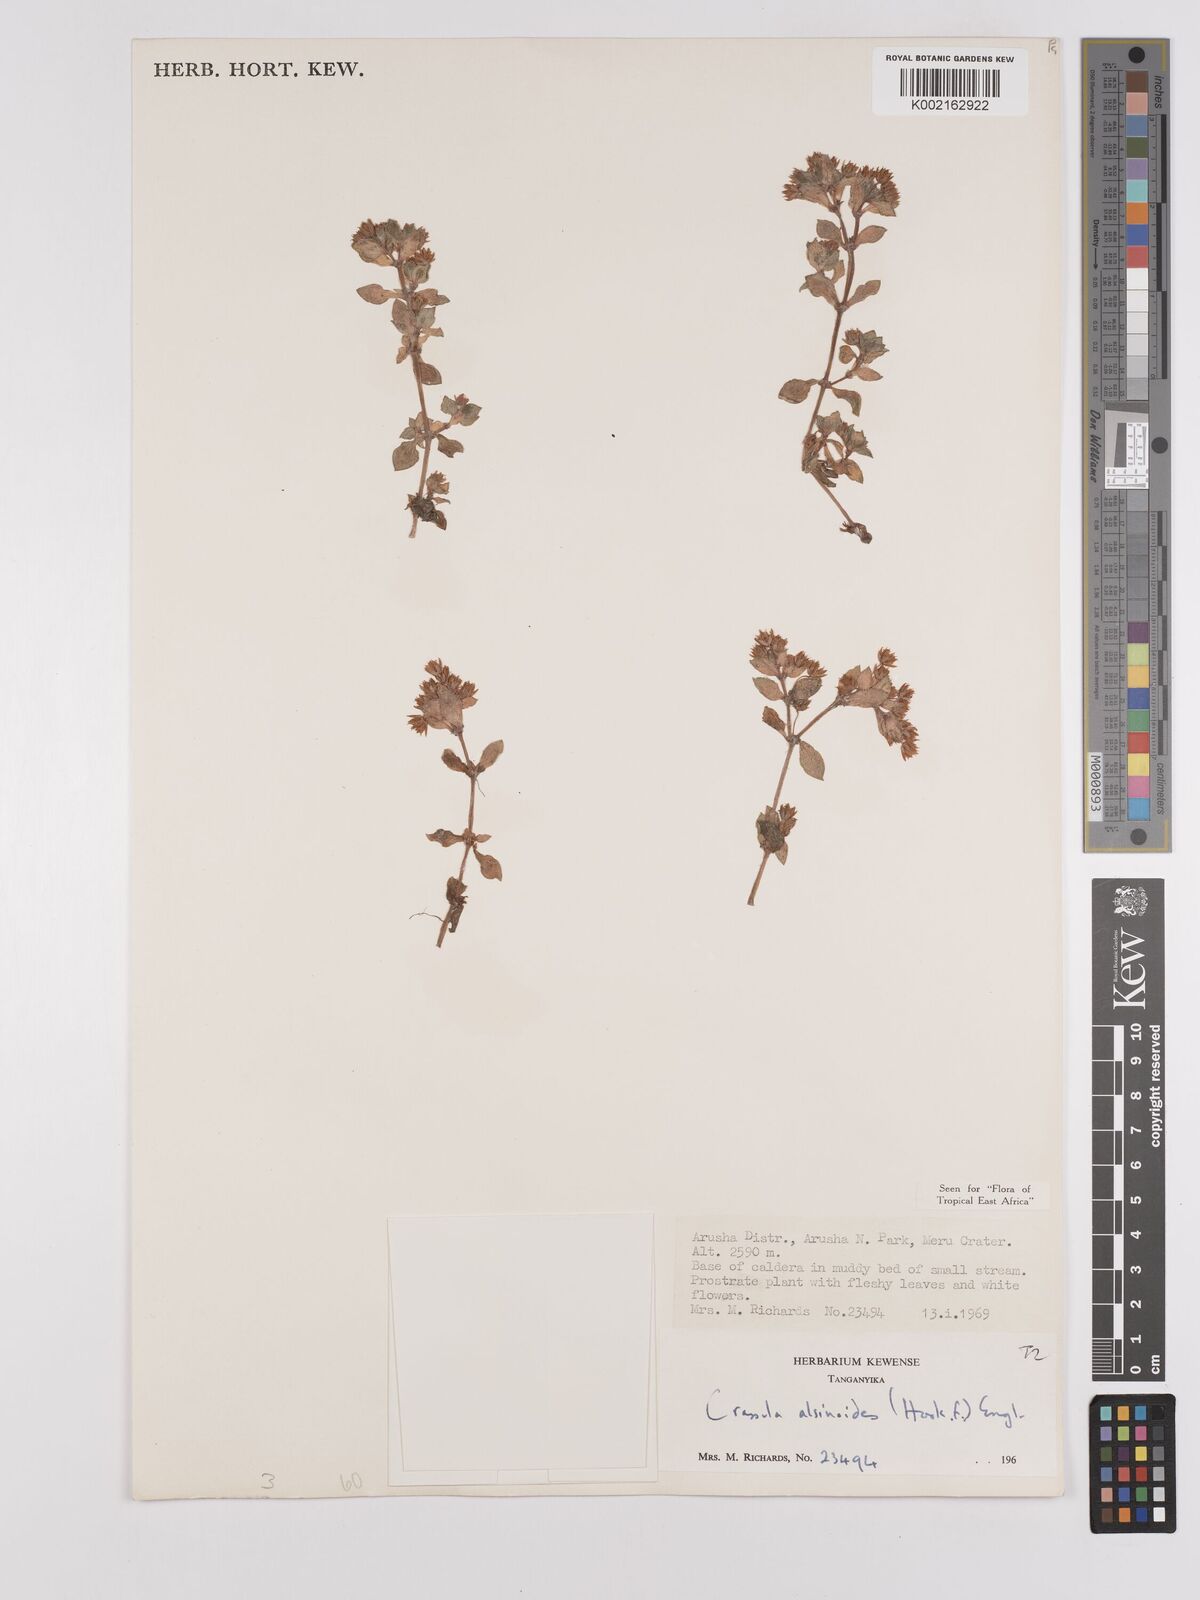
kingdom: Plantae
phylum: Tracheophyta
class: Magnoliopsida
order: Saxifragales
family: Crassulaceae
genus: Crassula
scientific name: Crassula alsinoides
